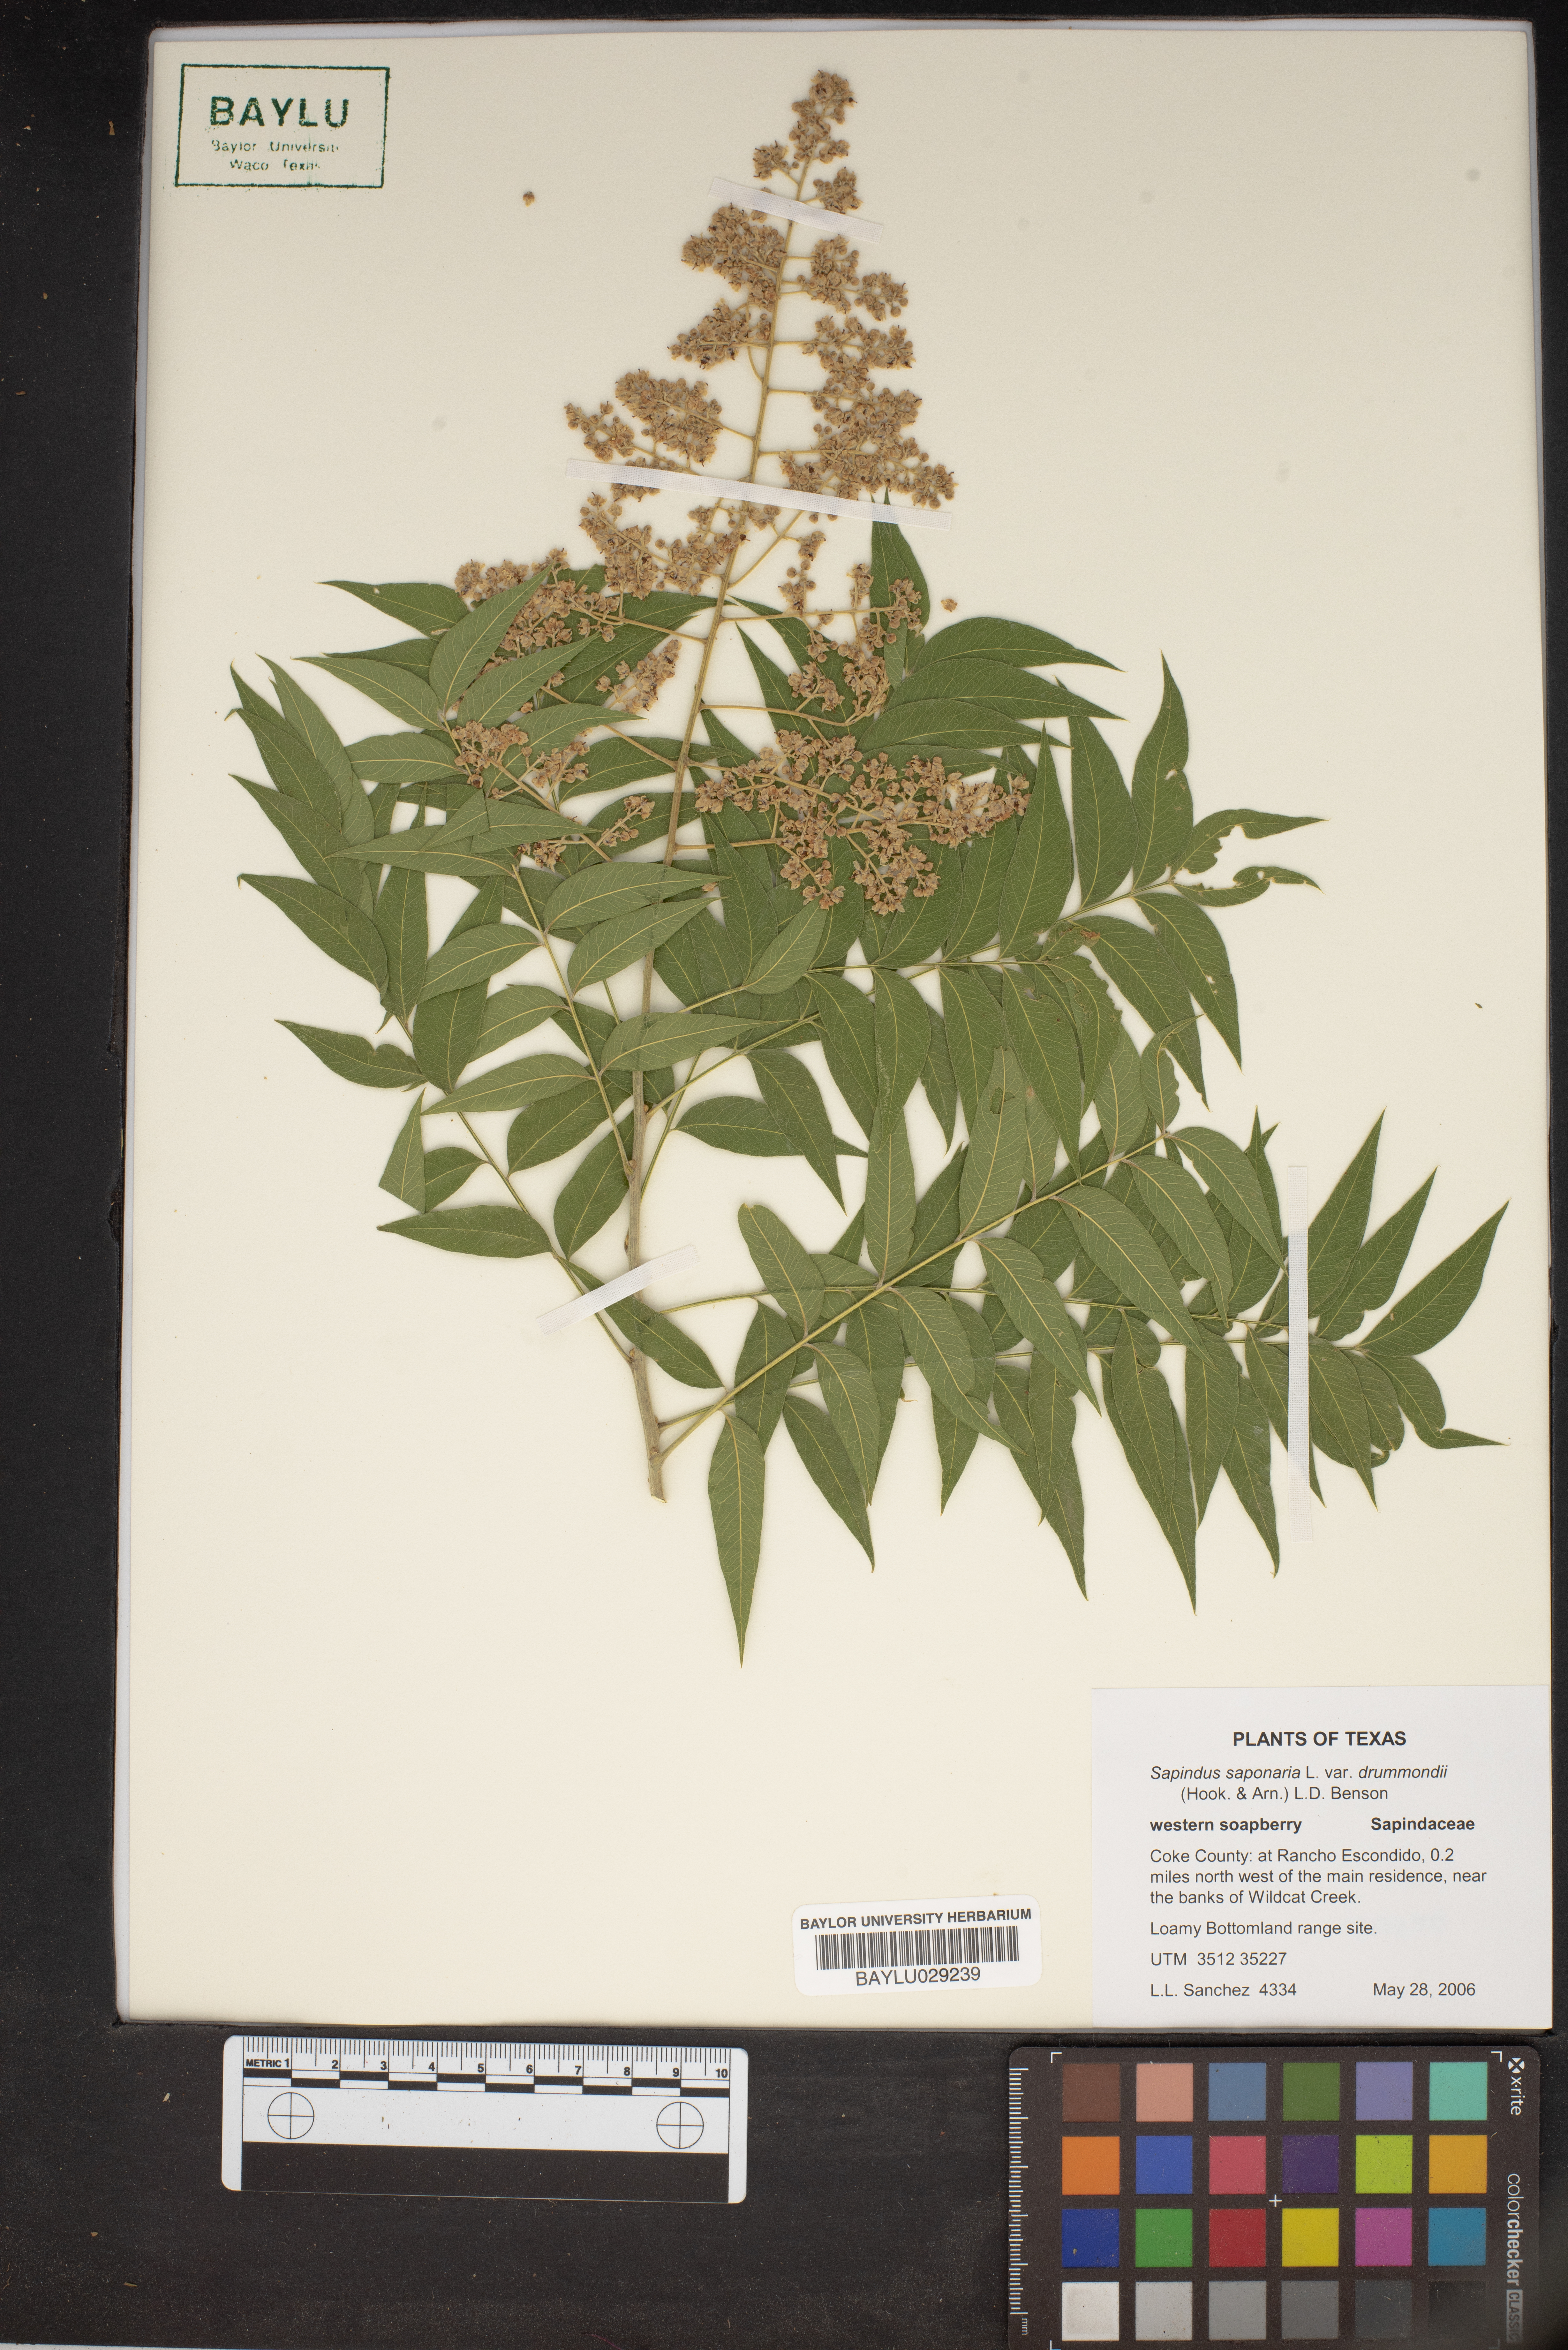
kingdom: Plantae
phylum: Tracheophyta
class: Magnoliopsida
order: Sapindales
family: Sapindaceae
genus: Sapindus
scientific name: Sapindus drummondii
